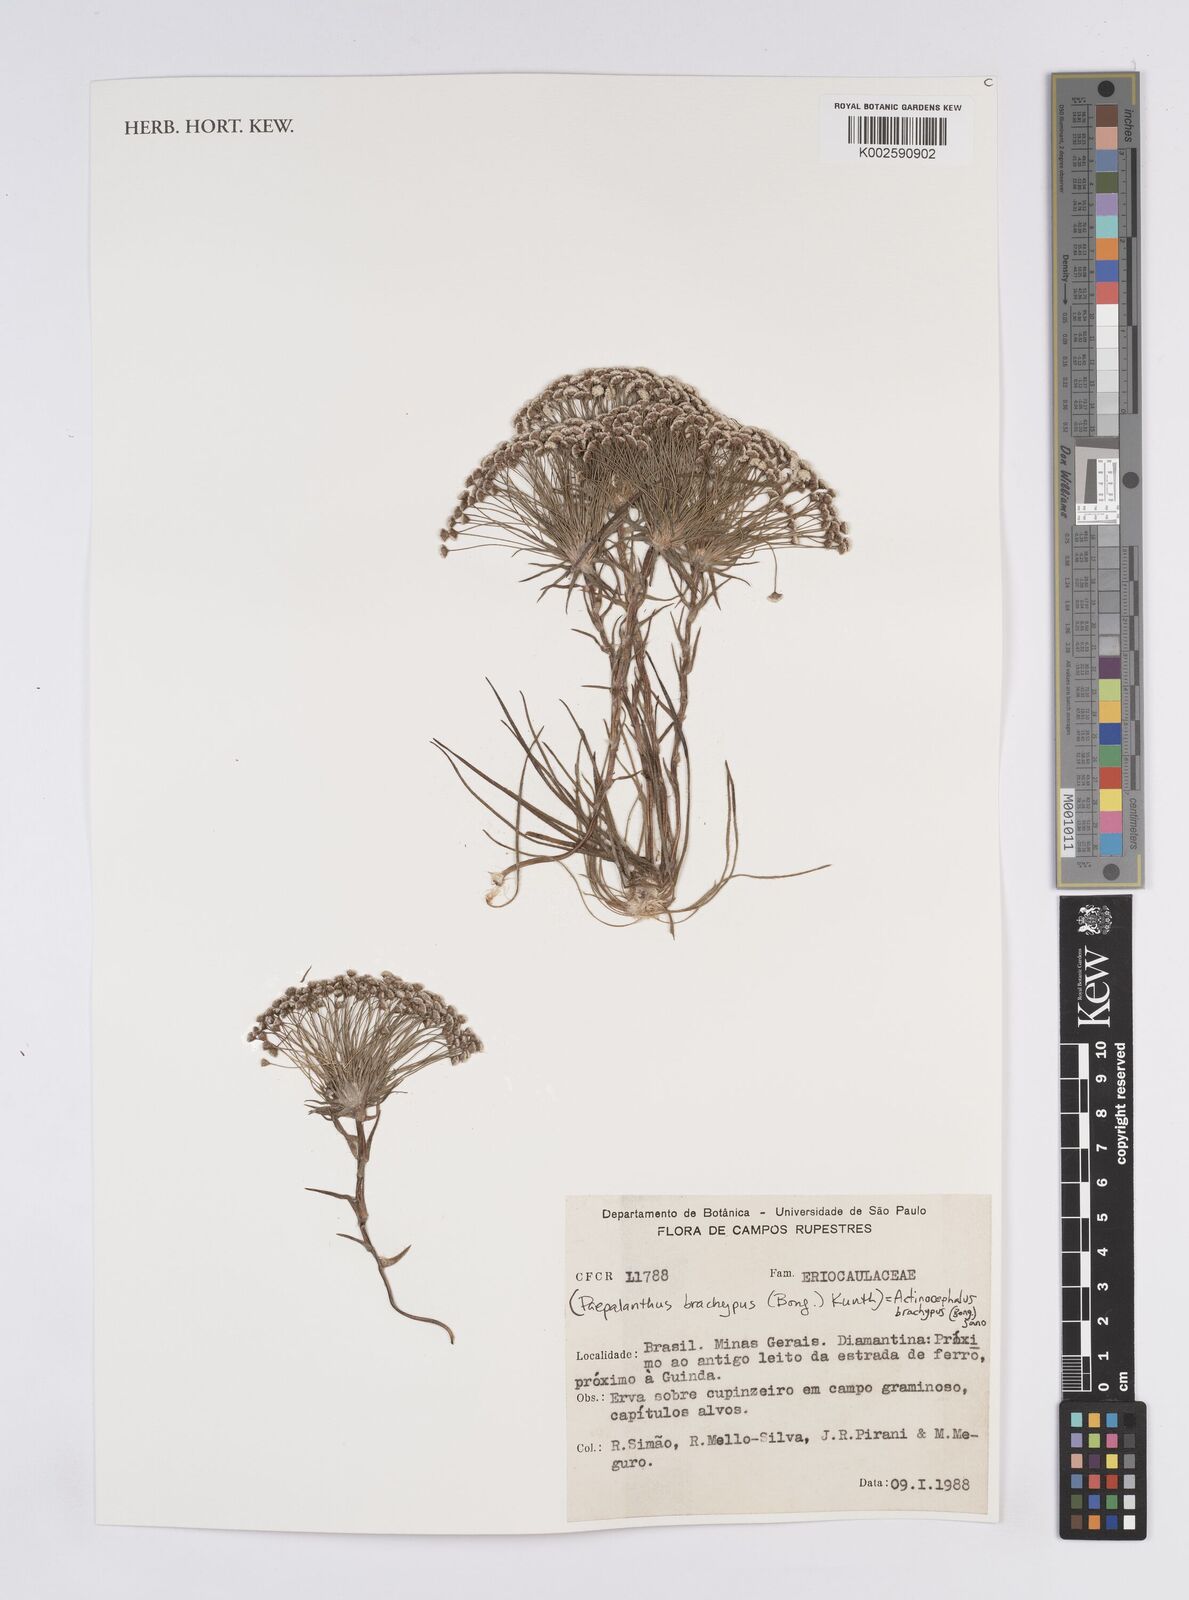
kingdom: Plantae
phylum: Tracheophyta
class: Liliopsida
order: Poales
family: Eriocaulaceae
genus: Paepalanthus
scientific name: Paepalanthus brachypus
